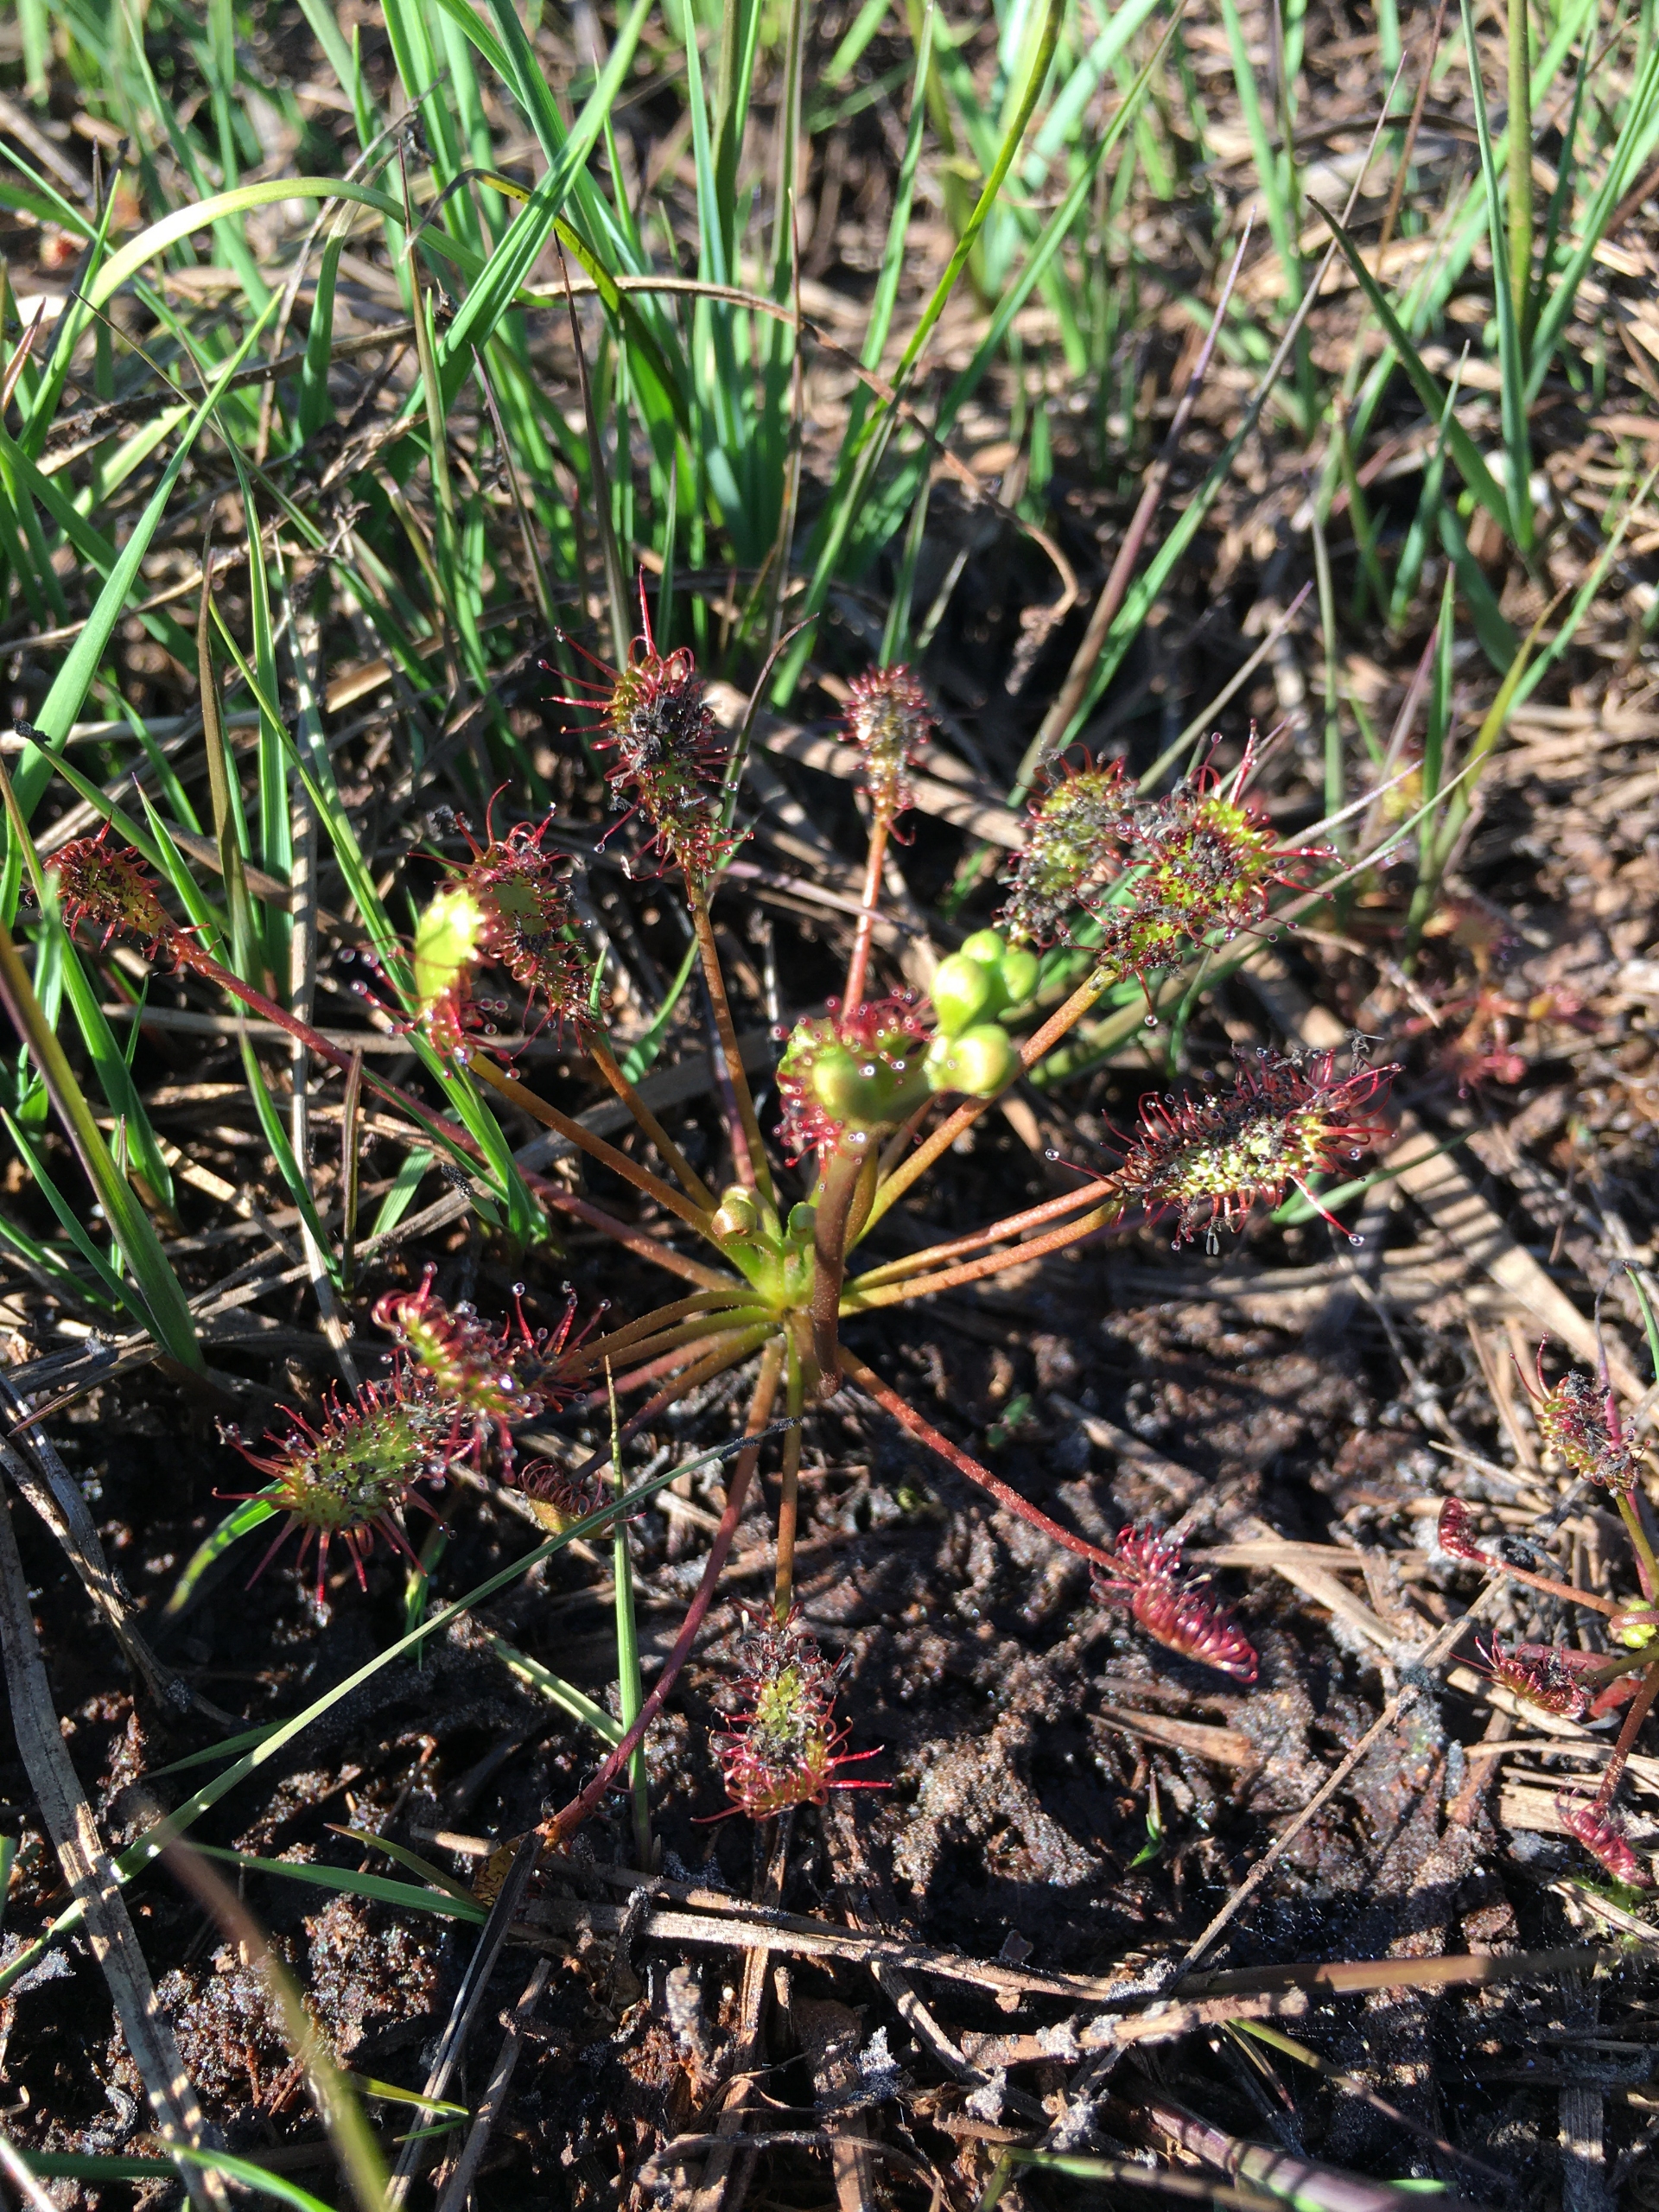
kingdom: Plantae
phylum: Tracheophyta
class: Magnoliopsida
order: Caryophyllales
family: Droseraceae
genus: Drosera
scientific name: Drosera intermedia
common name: Liden soldug
